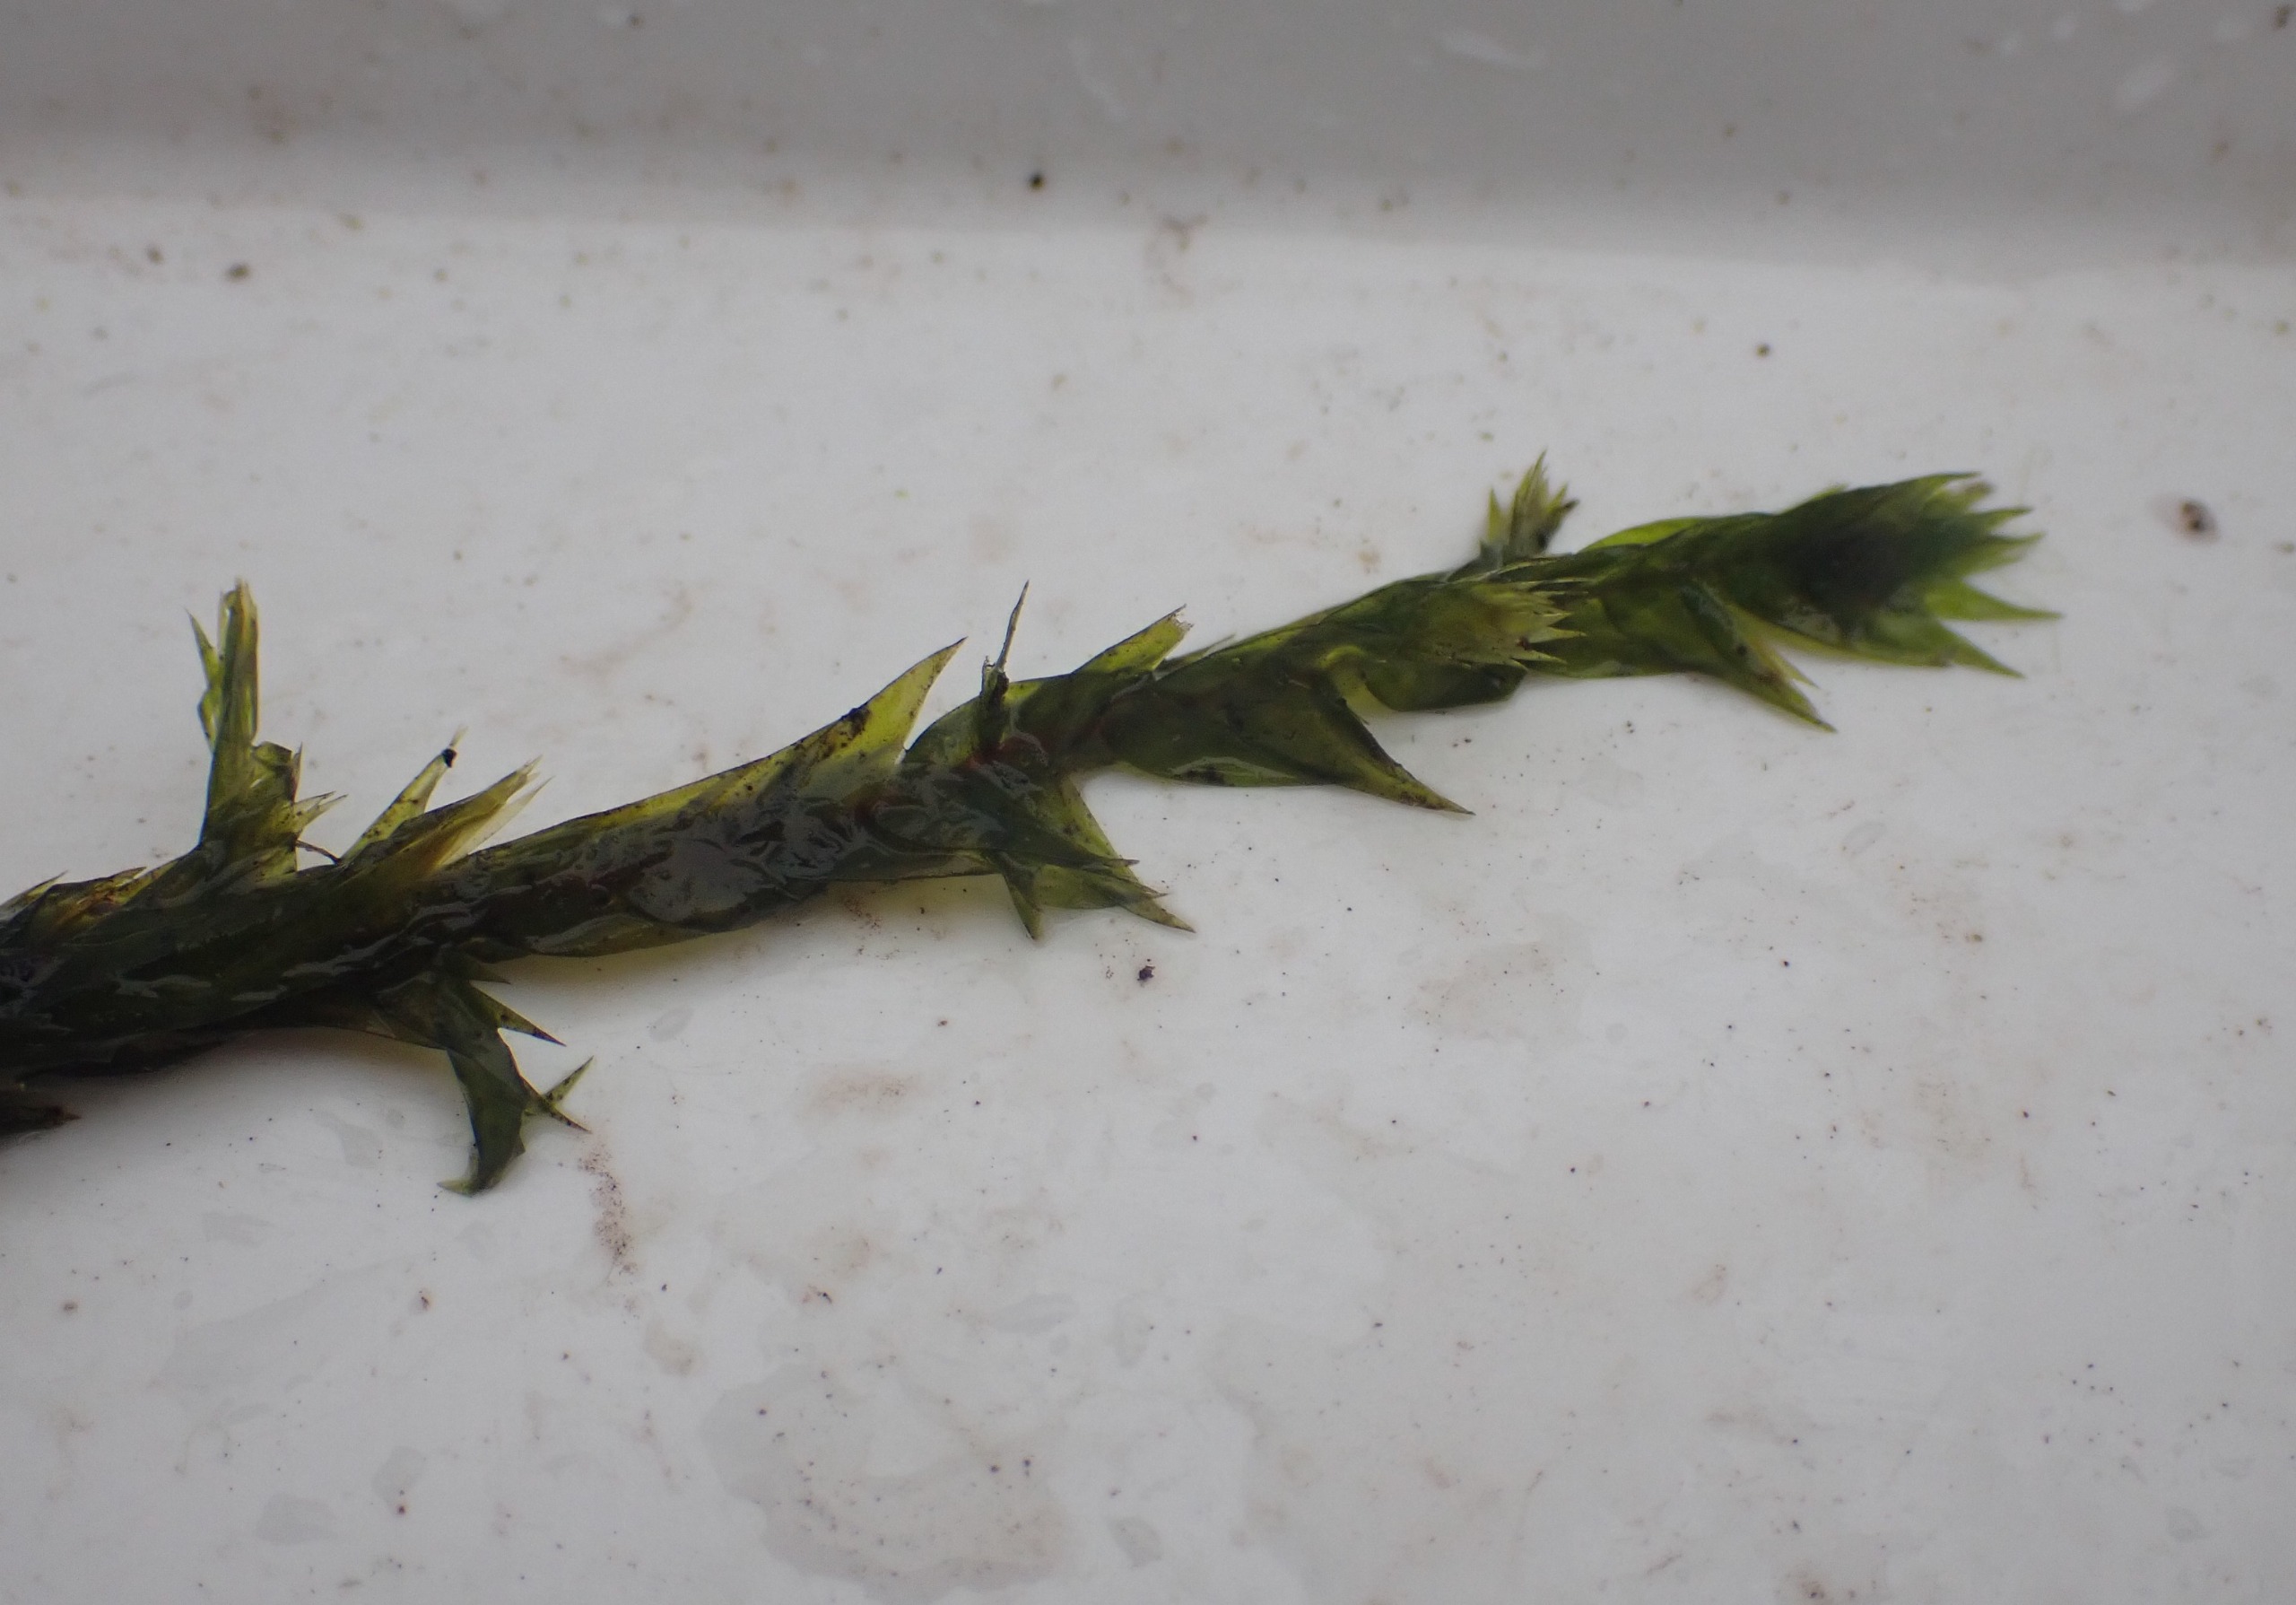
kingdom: Plantae
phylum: Bryophyta
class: Bryopsida
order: Hypnales
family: Fontinalaceae
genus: Fontinalis
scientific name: Fontinalis antipyretica
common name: Stor kildemos
